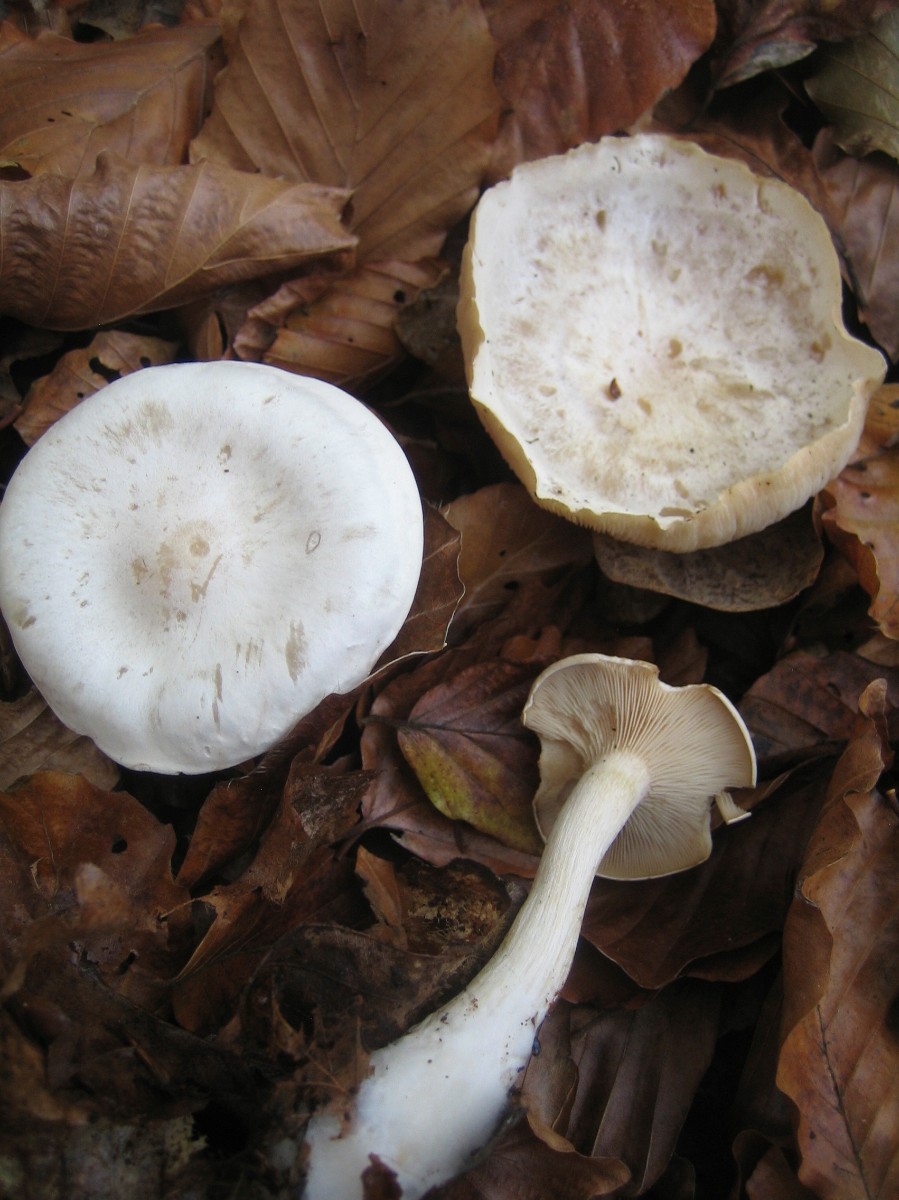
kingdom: Fungi
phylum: Basidiomycota
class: Agaricomycetes
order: Agaricales
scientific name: Agaricales
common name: champignonordenen
